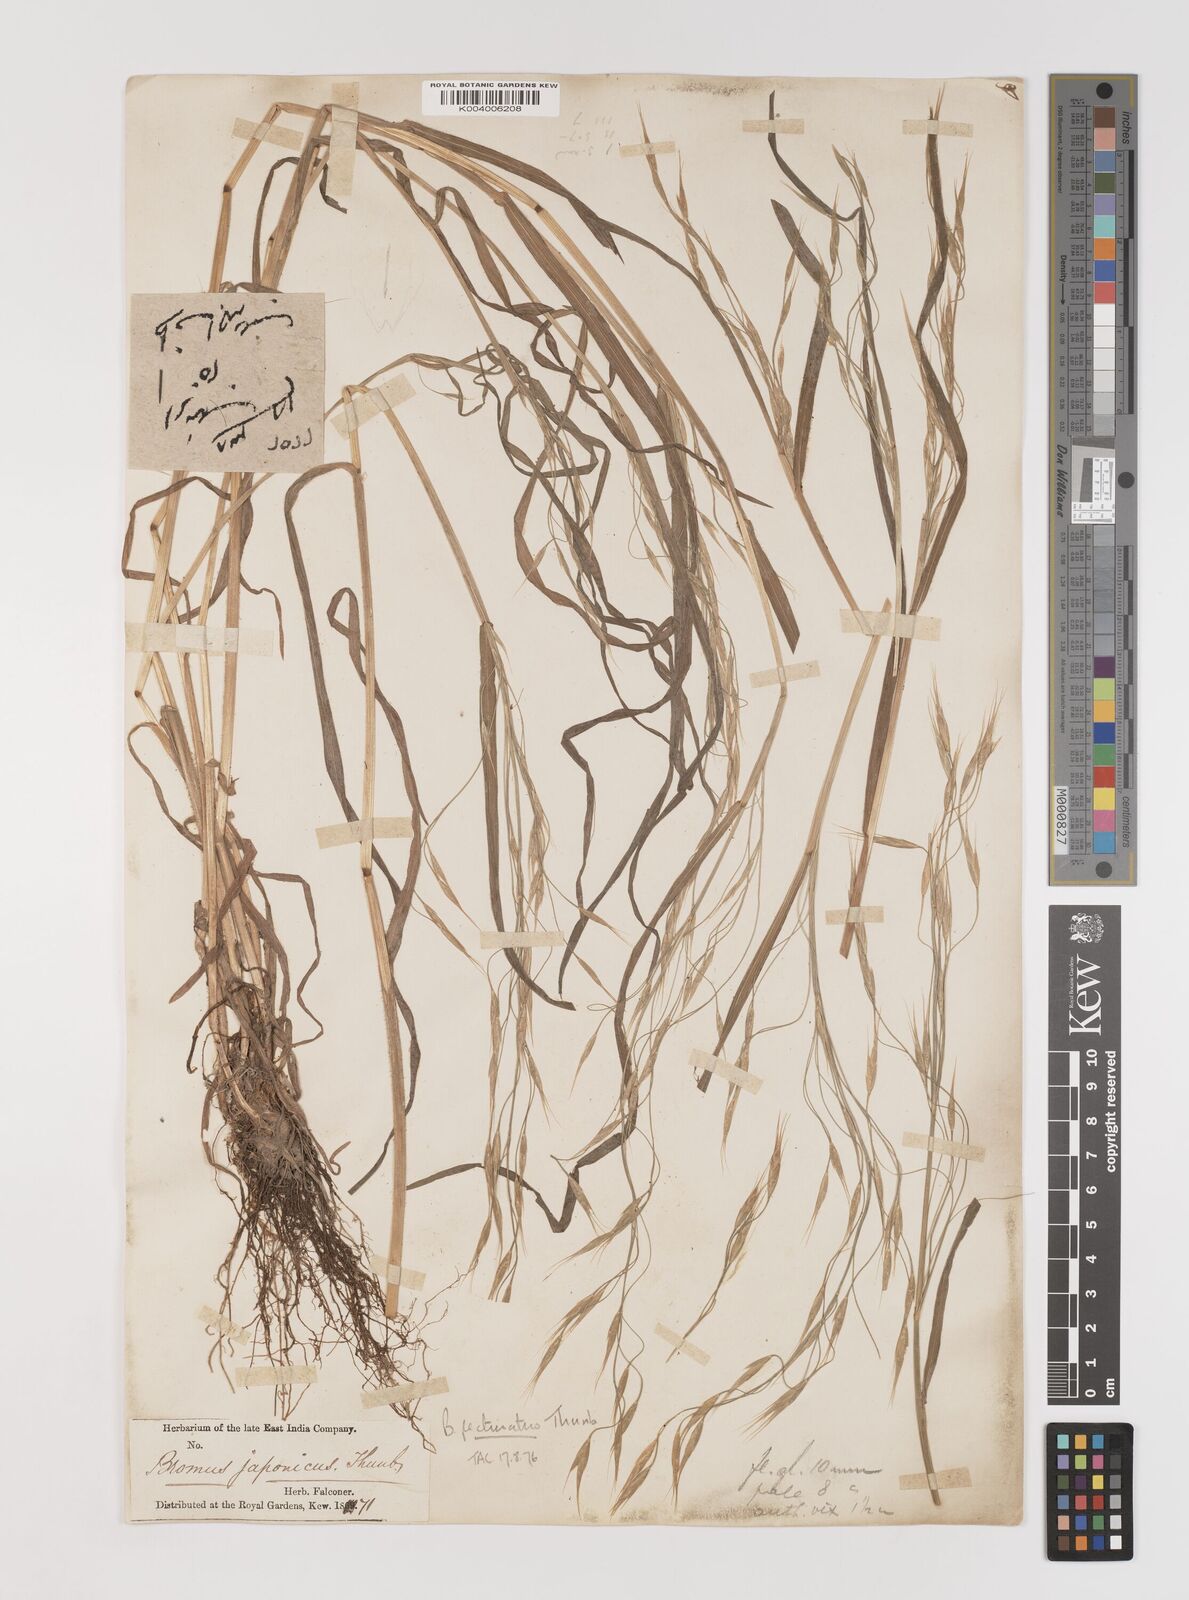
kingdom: Plantae
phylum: Tracheophyta
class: Liliopsida
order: Poales
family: Poaceae
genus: Bromus
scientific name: Bromus pectinatus
